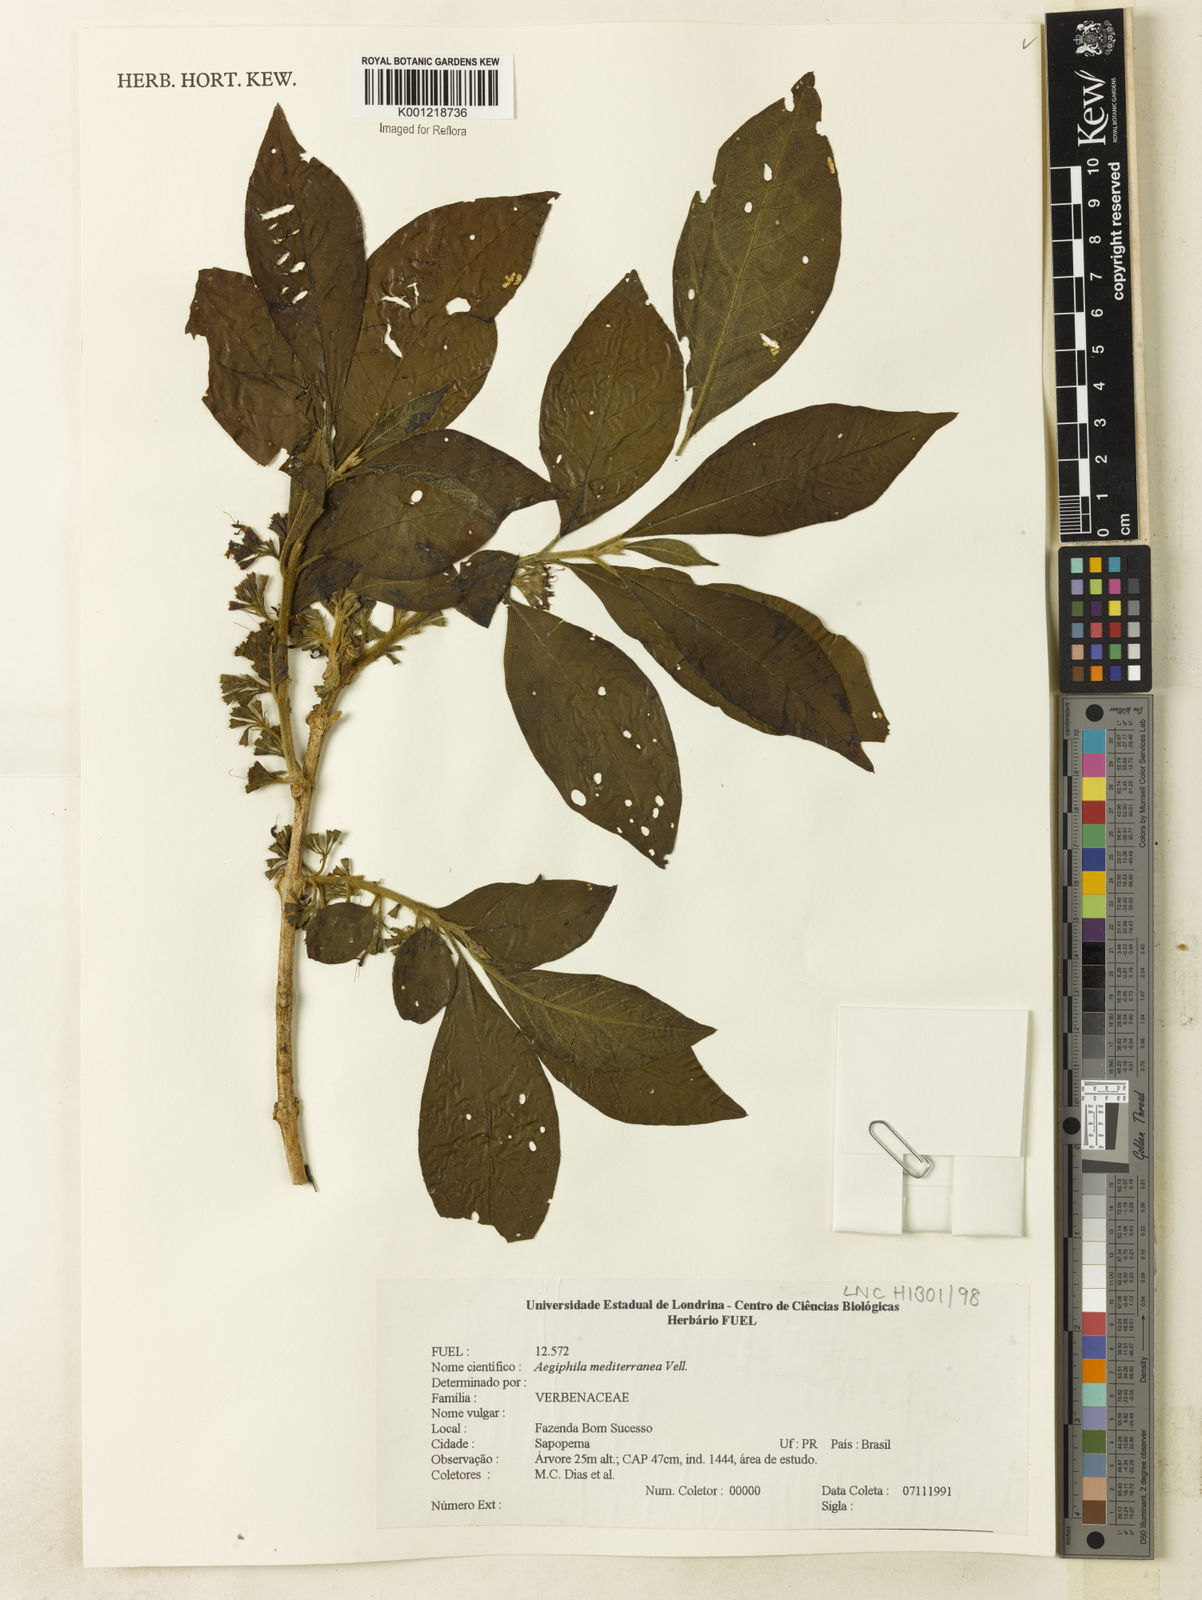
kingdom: Plantae
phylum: Tracheophyta
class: Magnoliopsida
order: Lamiales
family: Lamiaceae
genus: Aegiphila
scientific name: Aegiphila mediterranea
